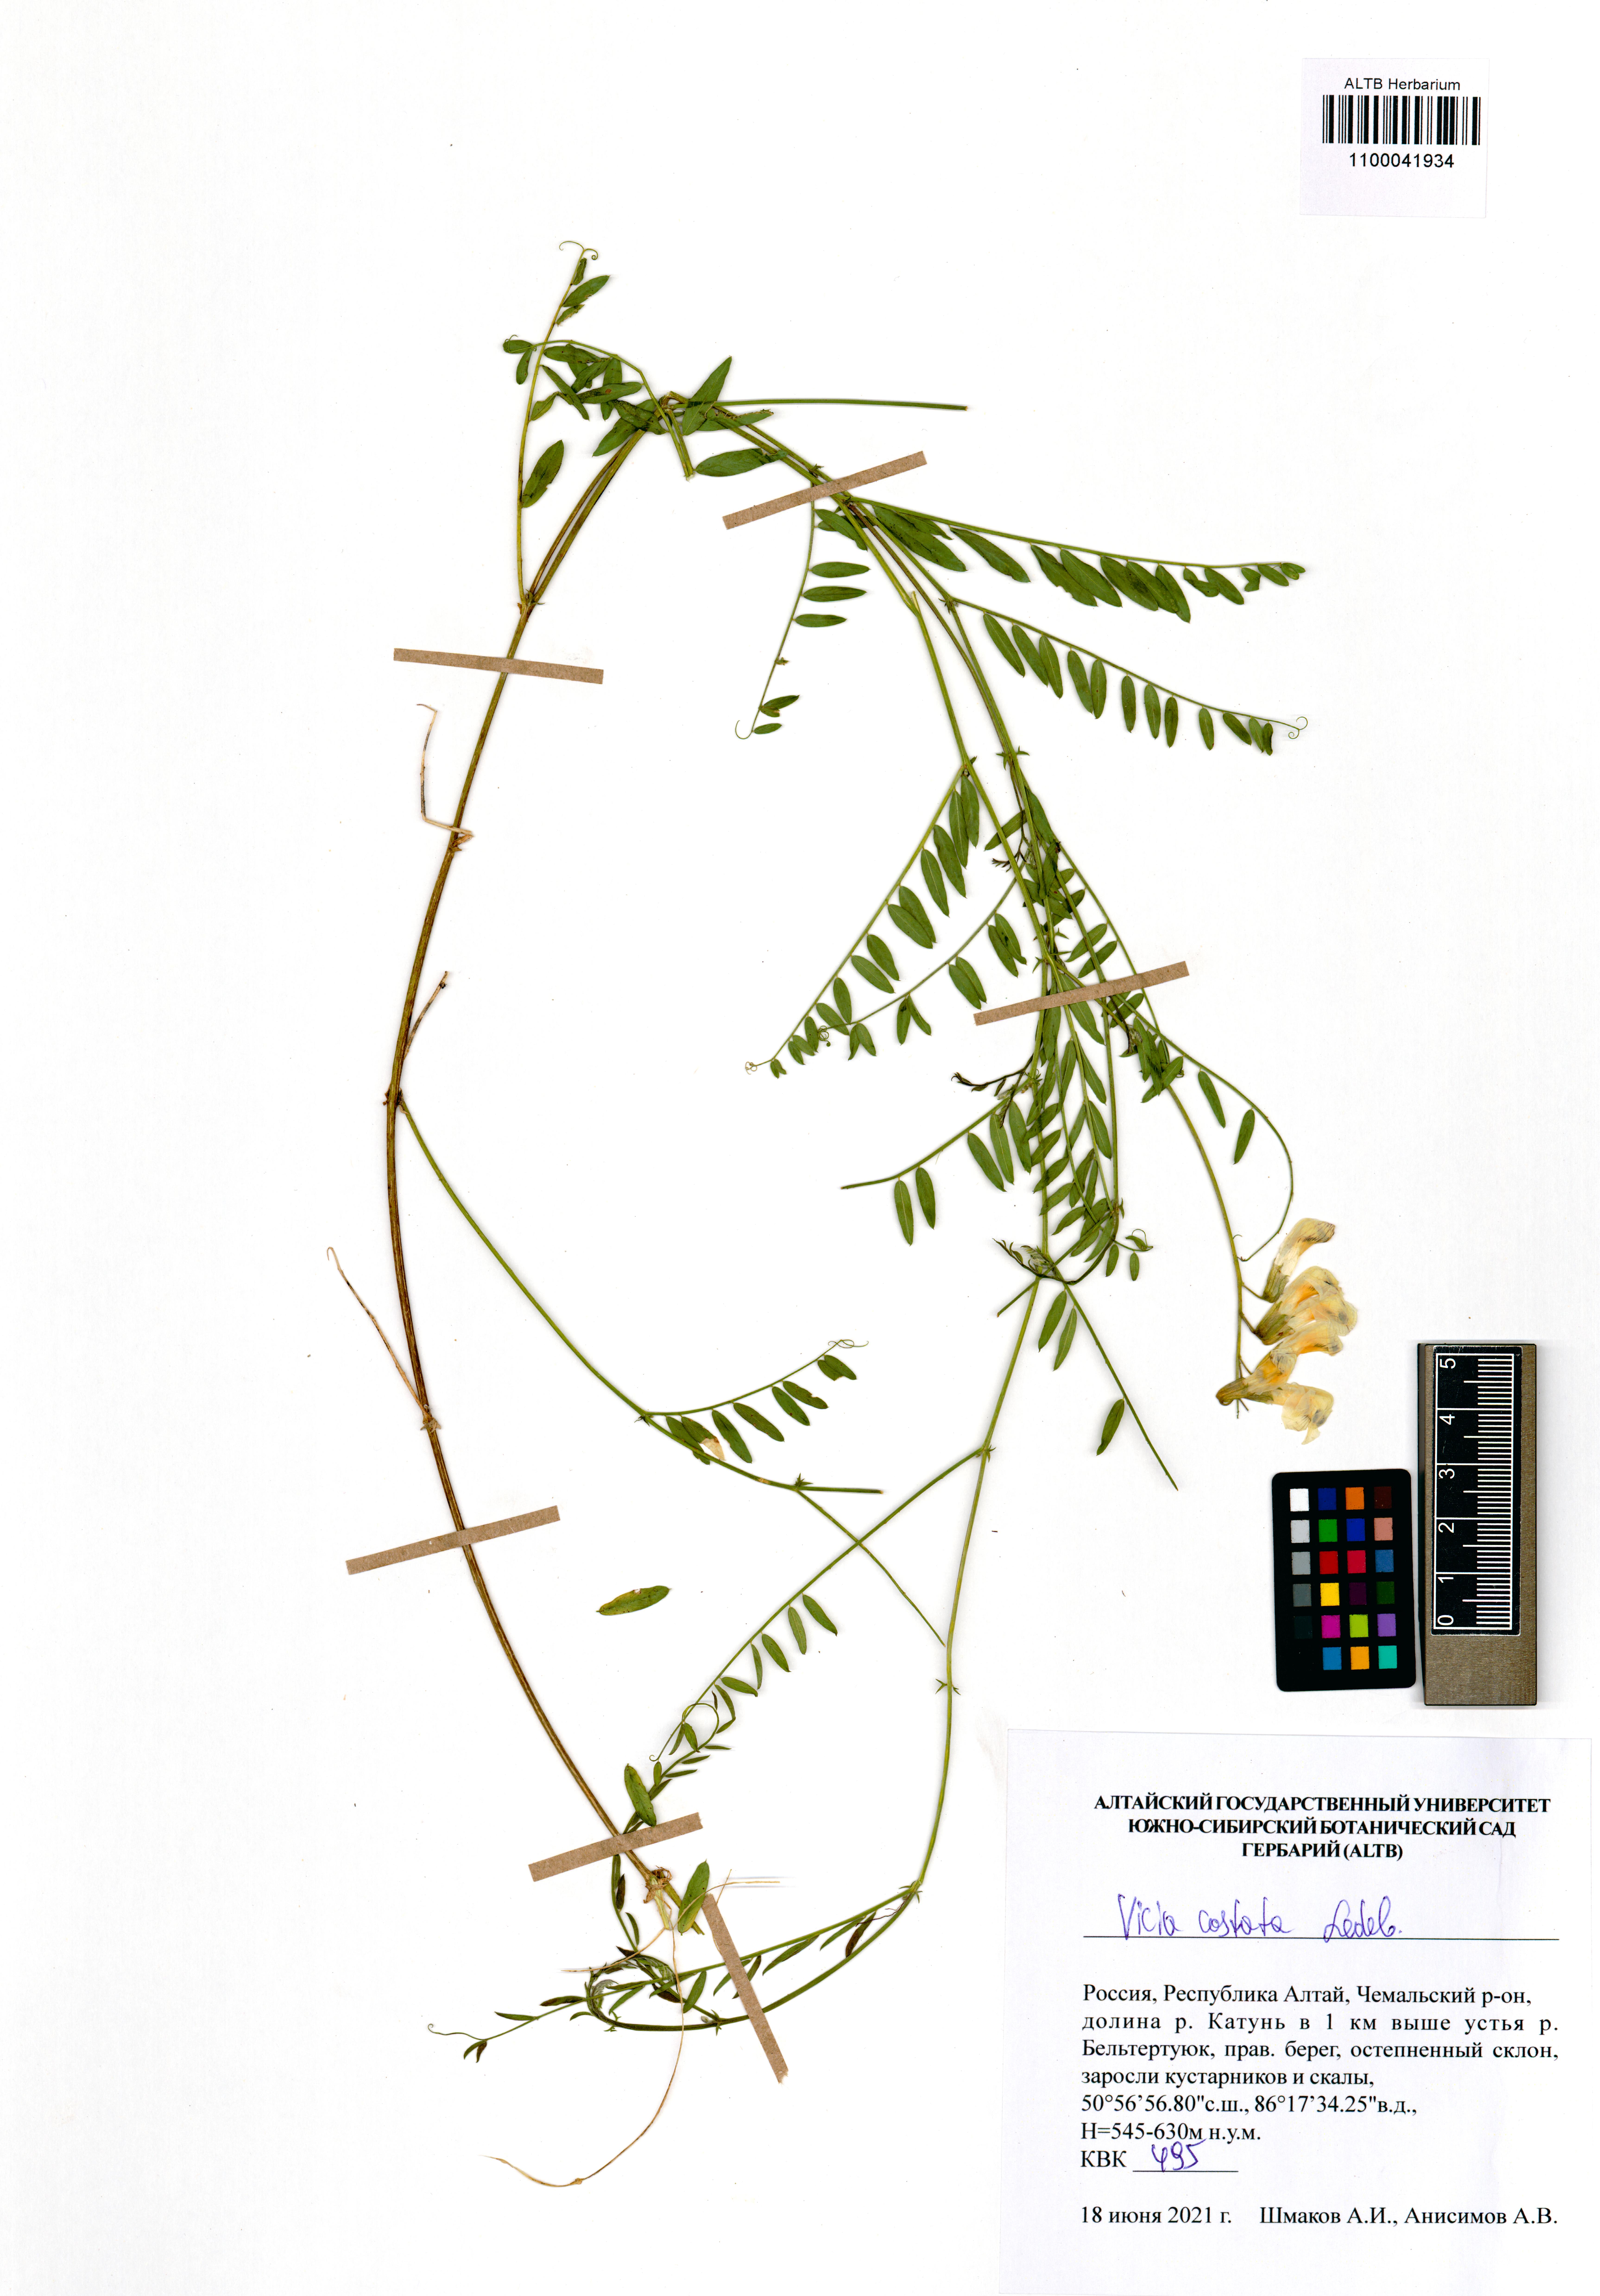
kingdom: Plantae
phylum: Tracheophyta
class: Magnoliopsida
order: Fabales
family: Fabaceae
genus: Vicia
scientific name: Vicia costata
